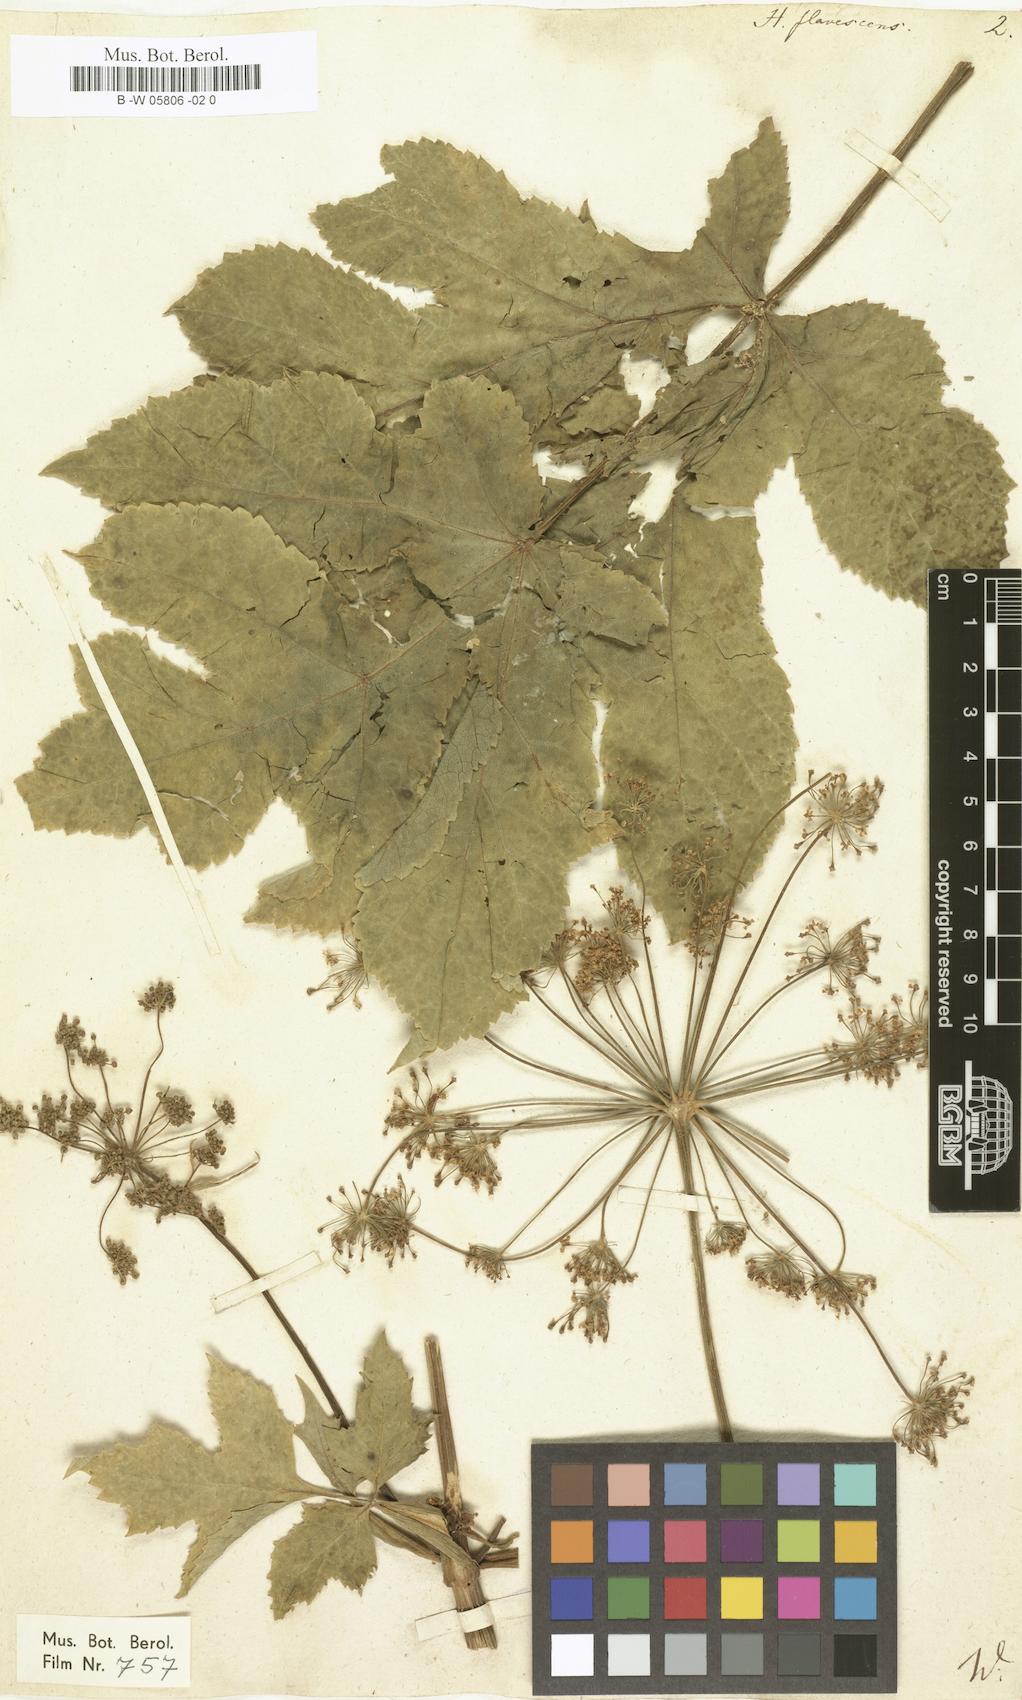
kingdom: Plantae
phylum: Tracheophyta
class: Magnoliopsida
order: Apiales
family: Apiaceae
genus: Heracleum
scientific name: Heracleum sphondylium
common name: Hogweed
